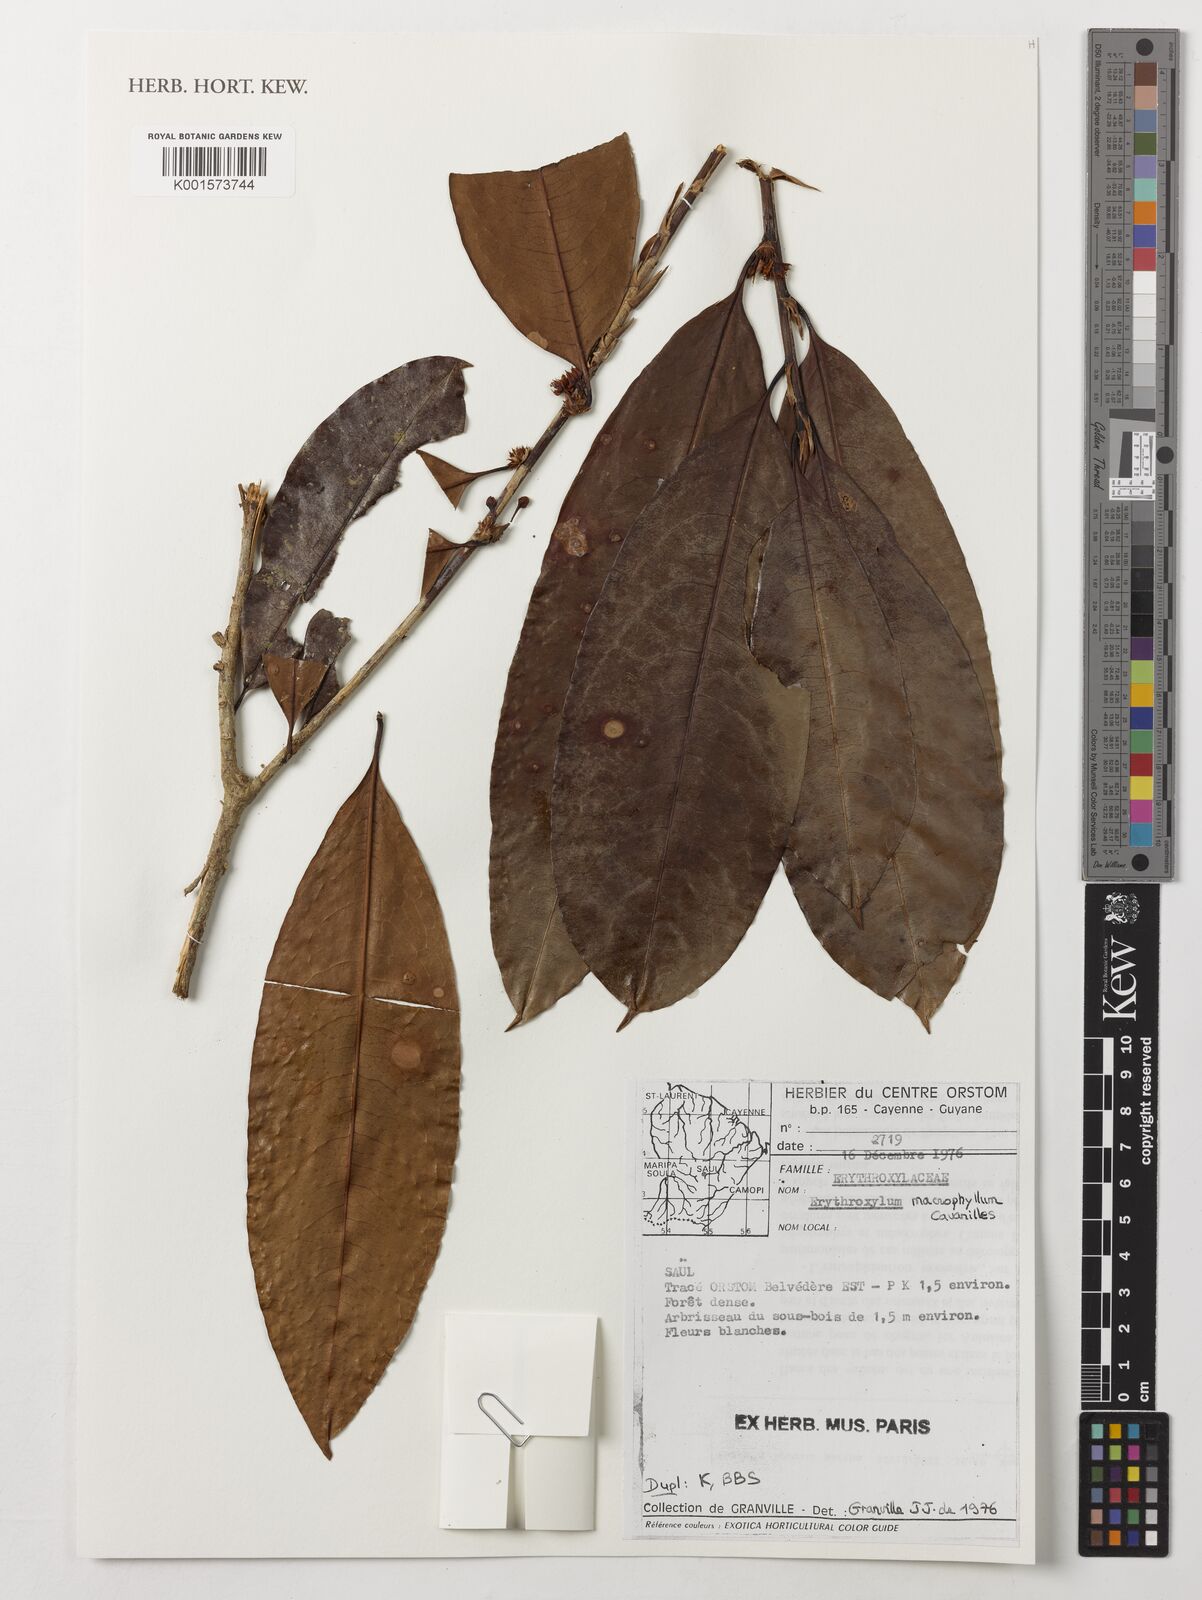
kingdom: Plantae
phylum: Tracheophyta
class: Magnoliopsida
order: Malpighiales
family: Erythroxylaceae
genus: Erythroxylum
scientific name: Erythroxylum macrophyllum
